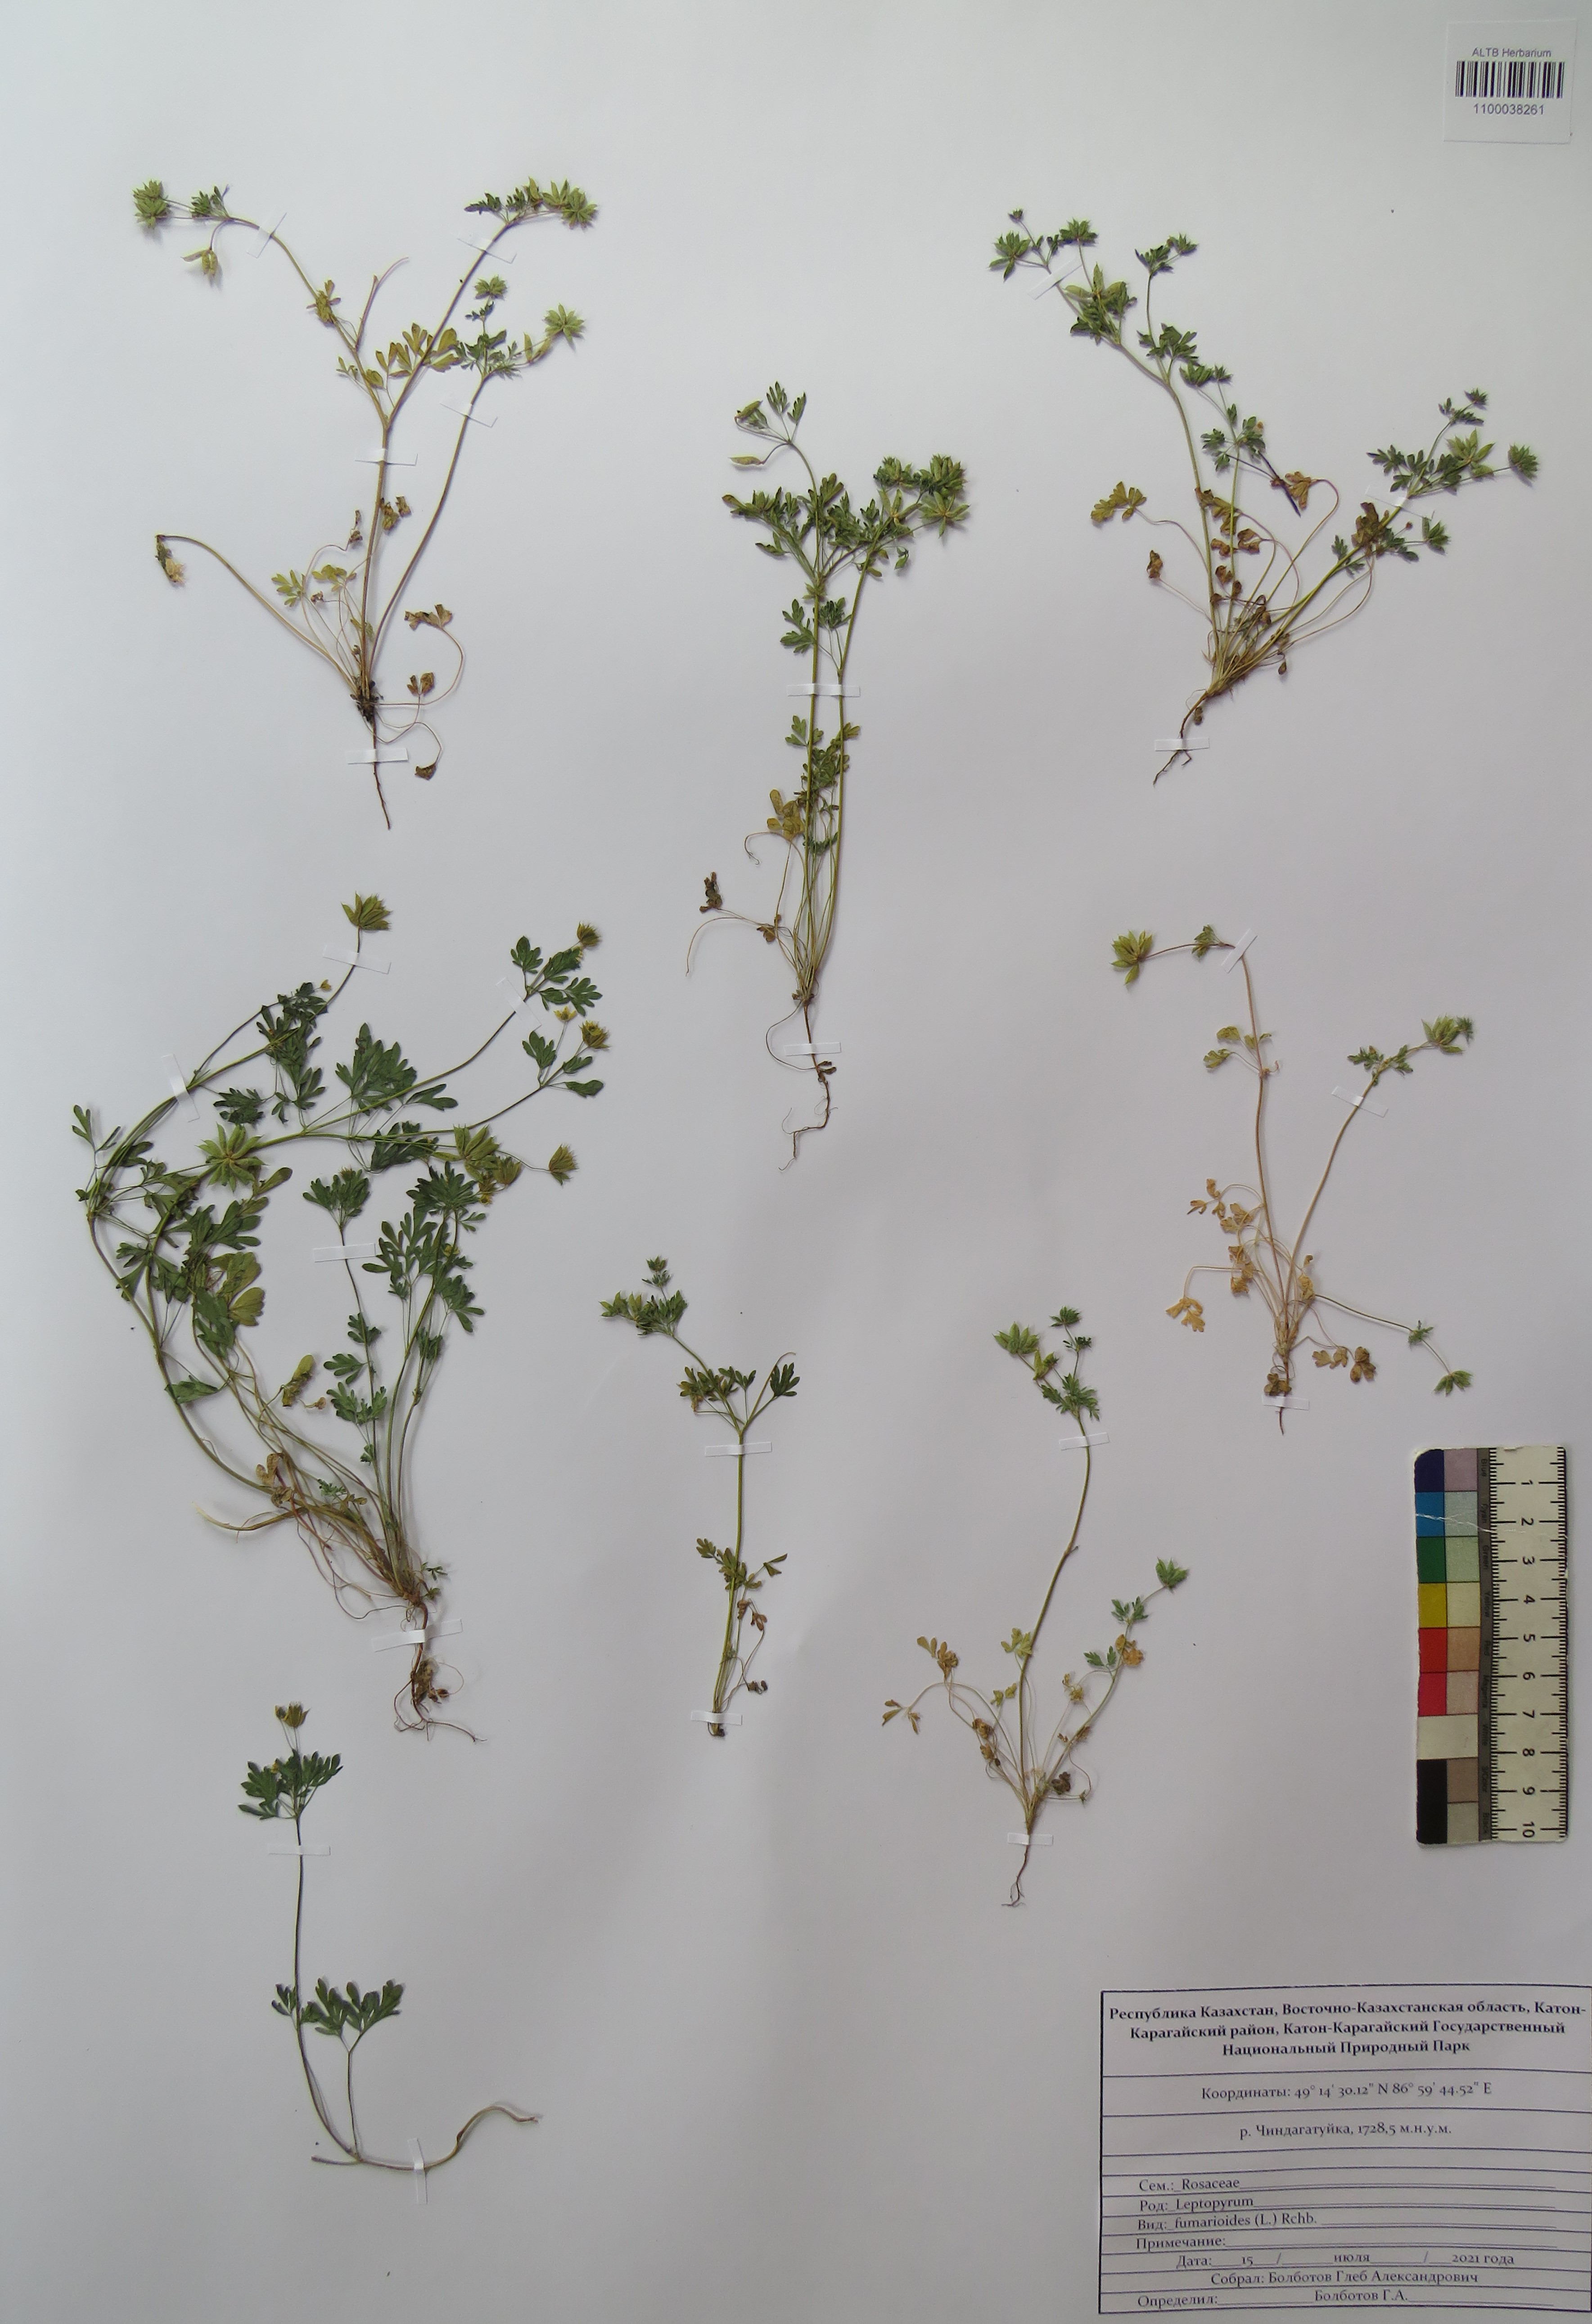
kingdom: Plantae
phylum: Tracheophyta
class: Magnoliopsida
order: Ranunculales
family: Ranunculaceae
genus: Leptopyrum
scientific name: Leptopyrum fumarioides
